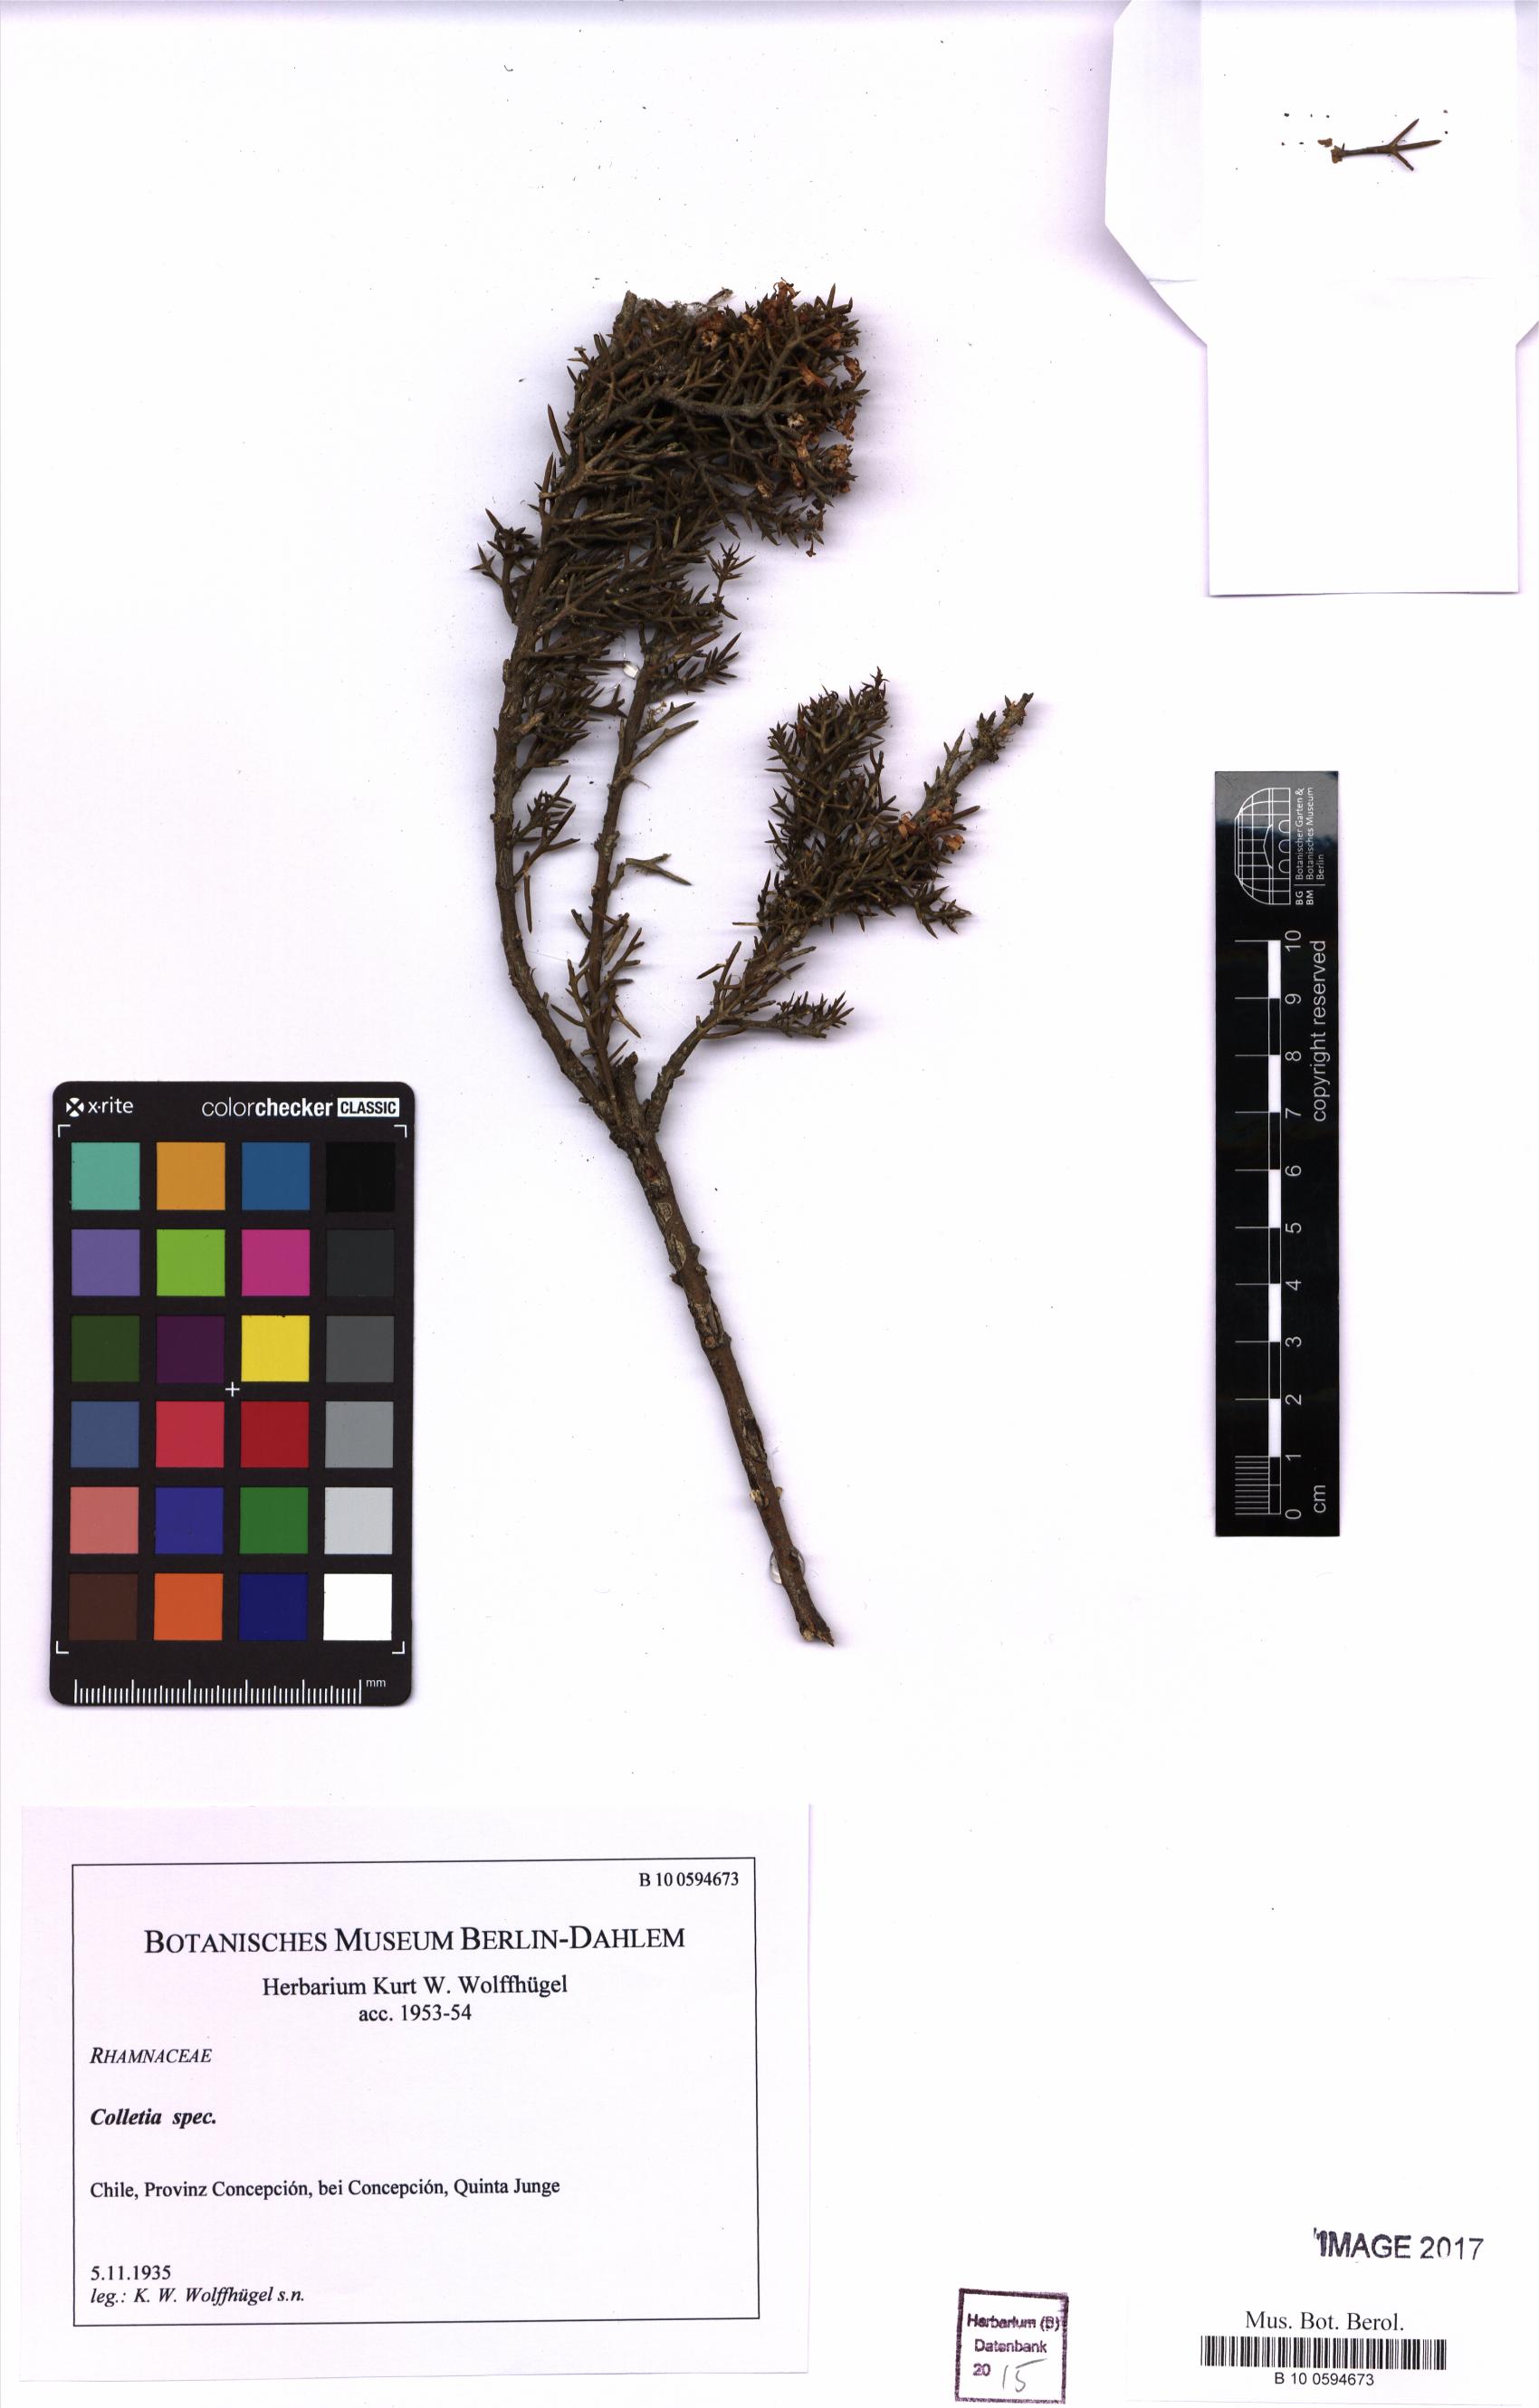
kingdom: Plantae
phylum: Tracheophyta
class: Magnoliopsida
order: Rosales
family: Rhamnaceae
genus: Colletia
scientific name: Colletia
